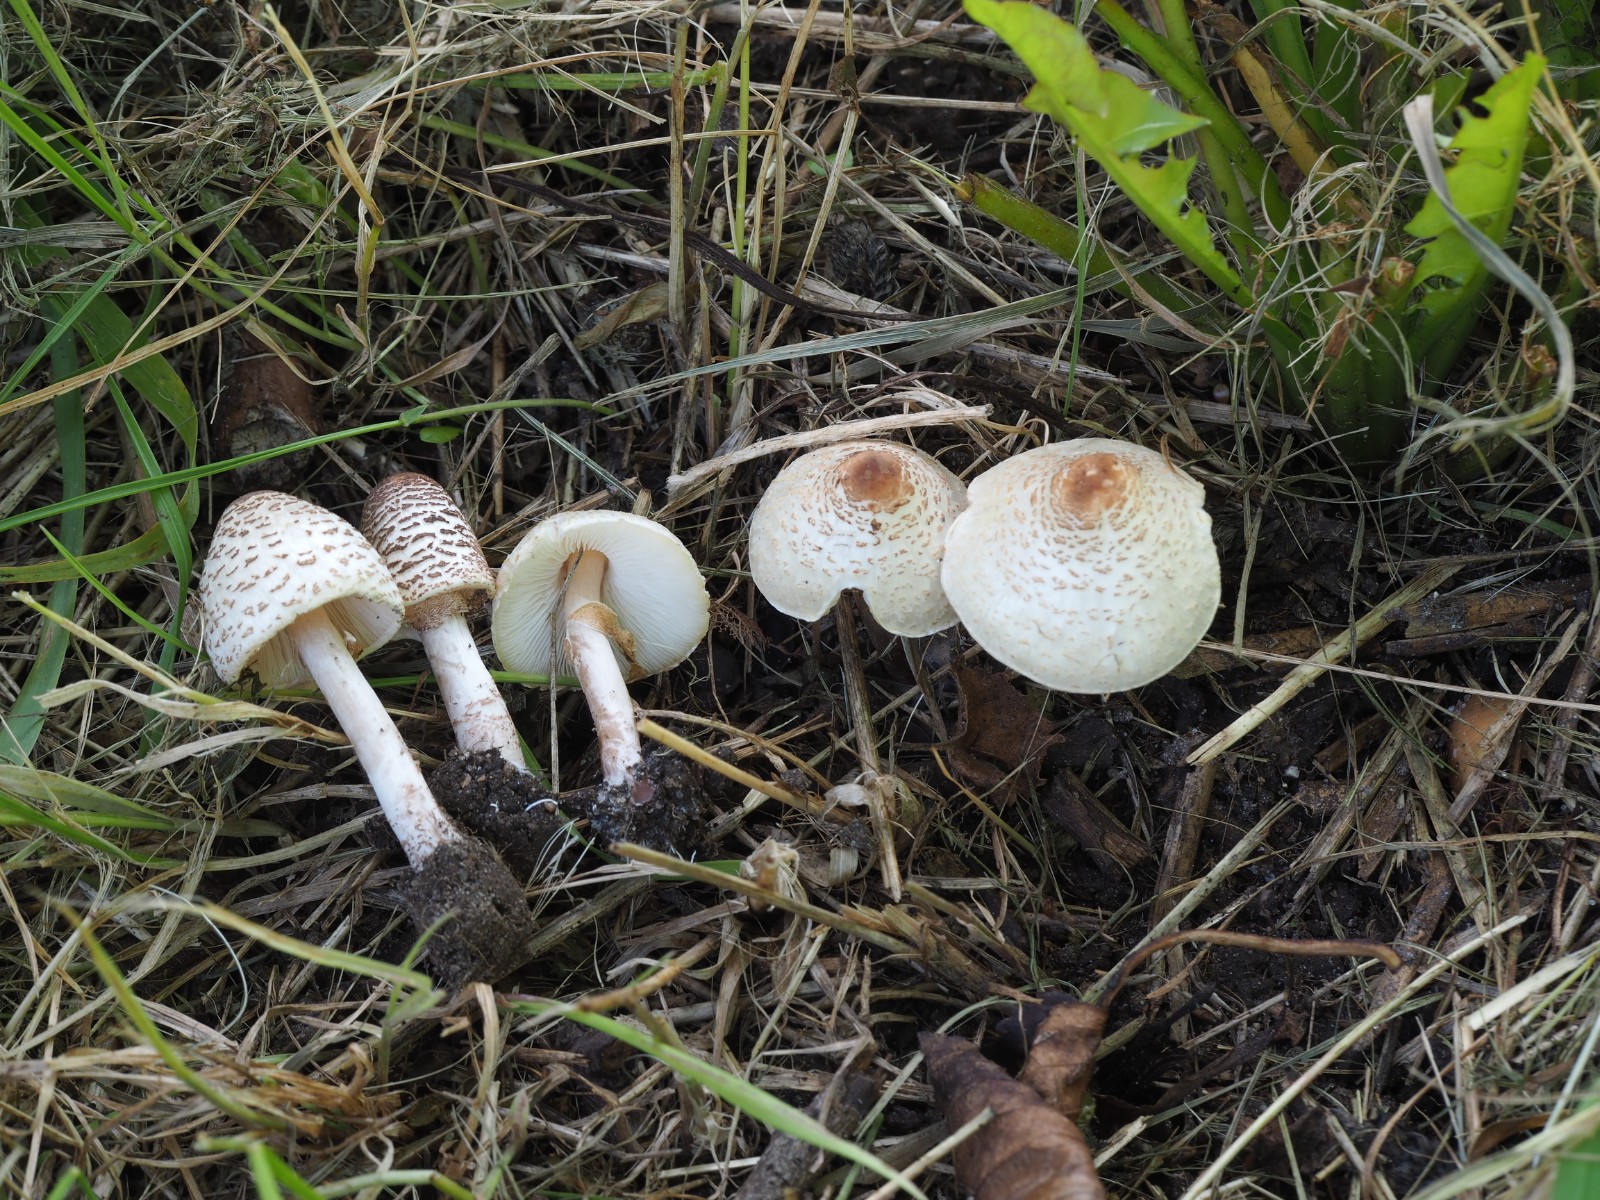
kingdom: Fungi
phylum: Basidiomycota
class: Agaricomycetes
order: Agaricales
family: Agaricaceae
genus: Lepiota
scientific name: Lepiota cristata
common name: stinkende parasolhat
